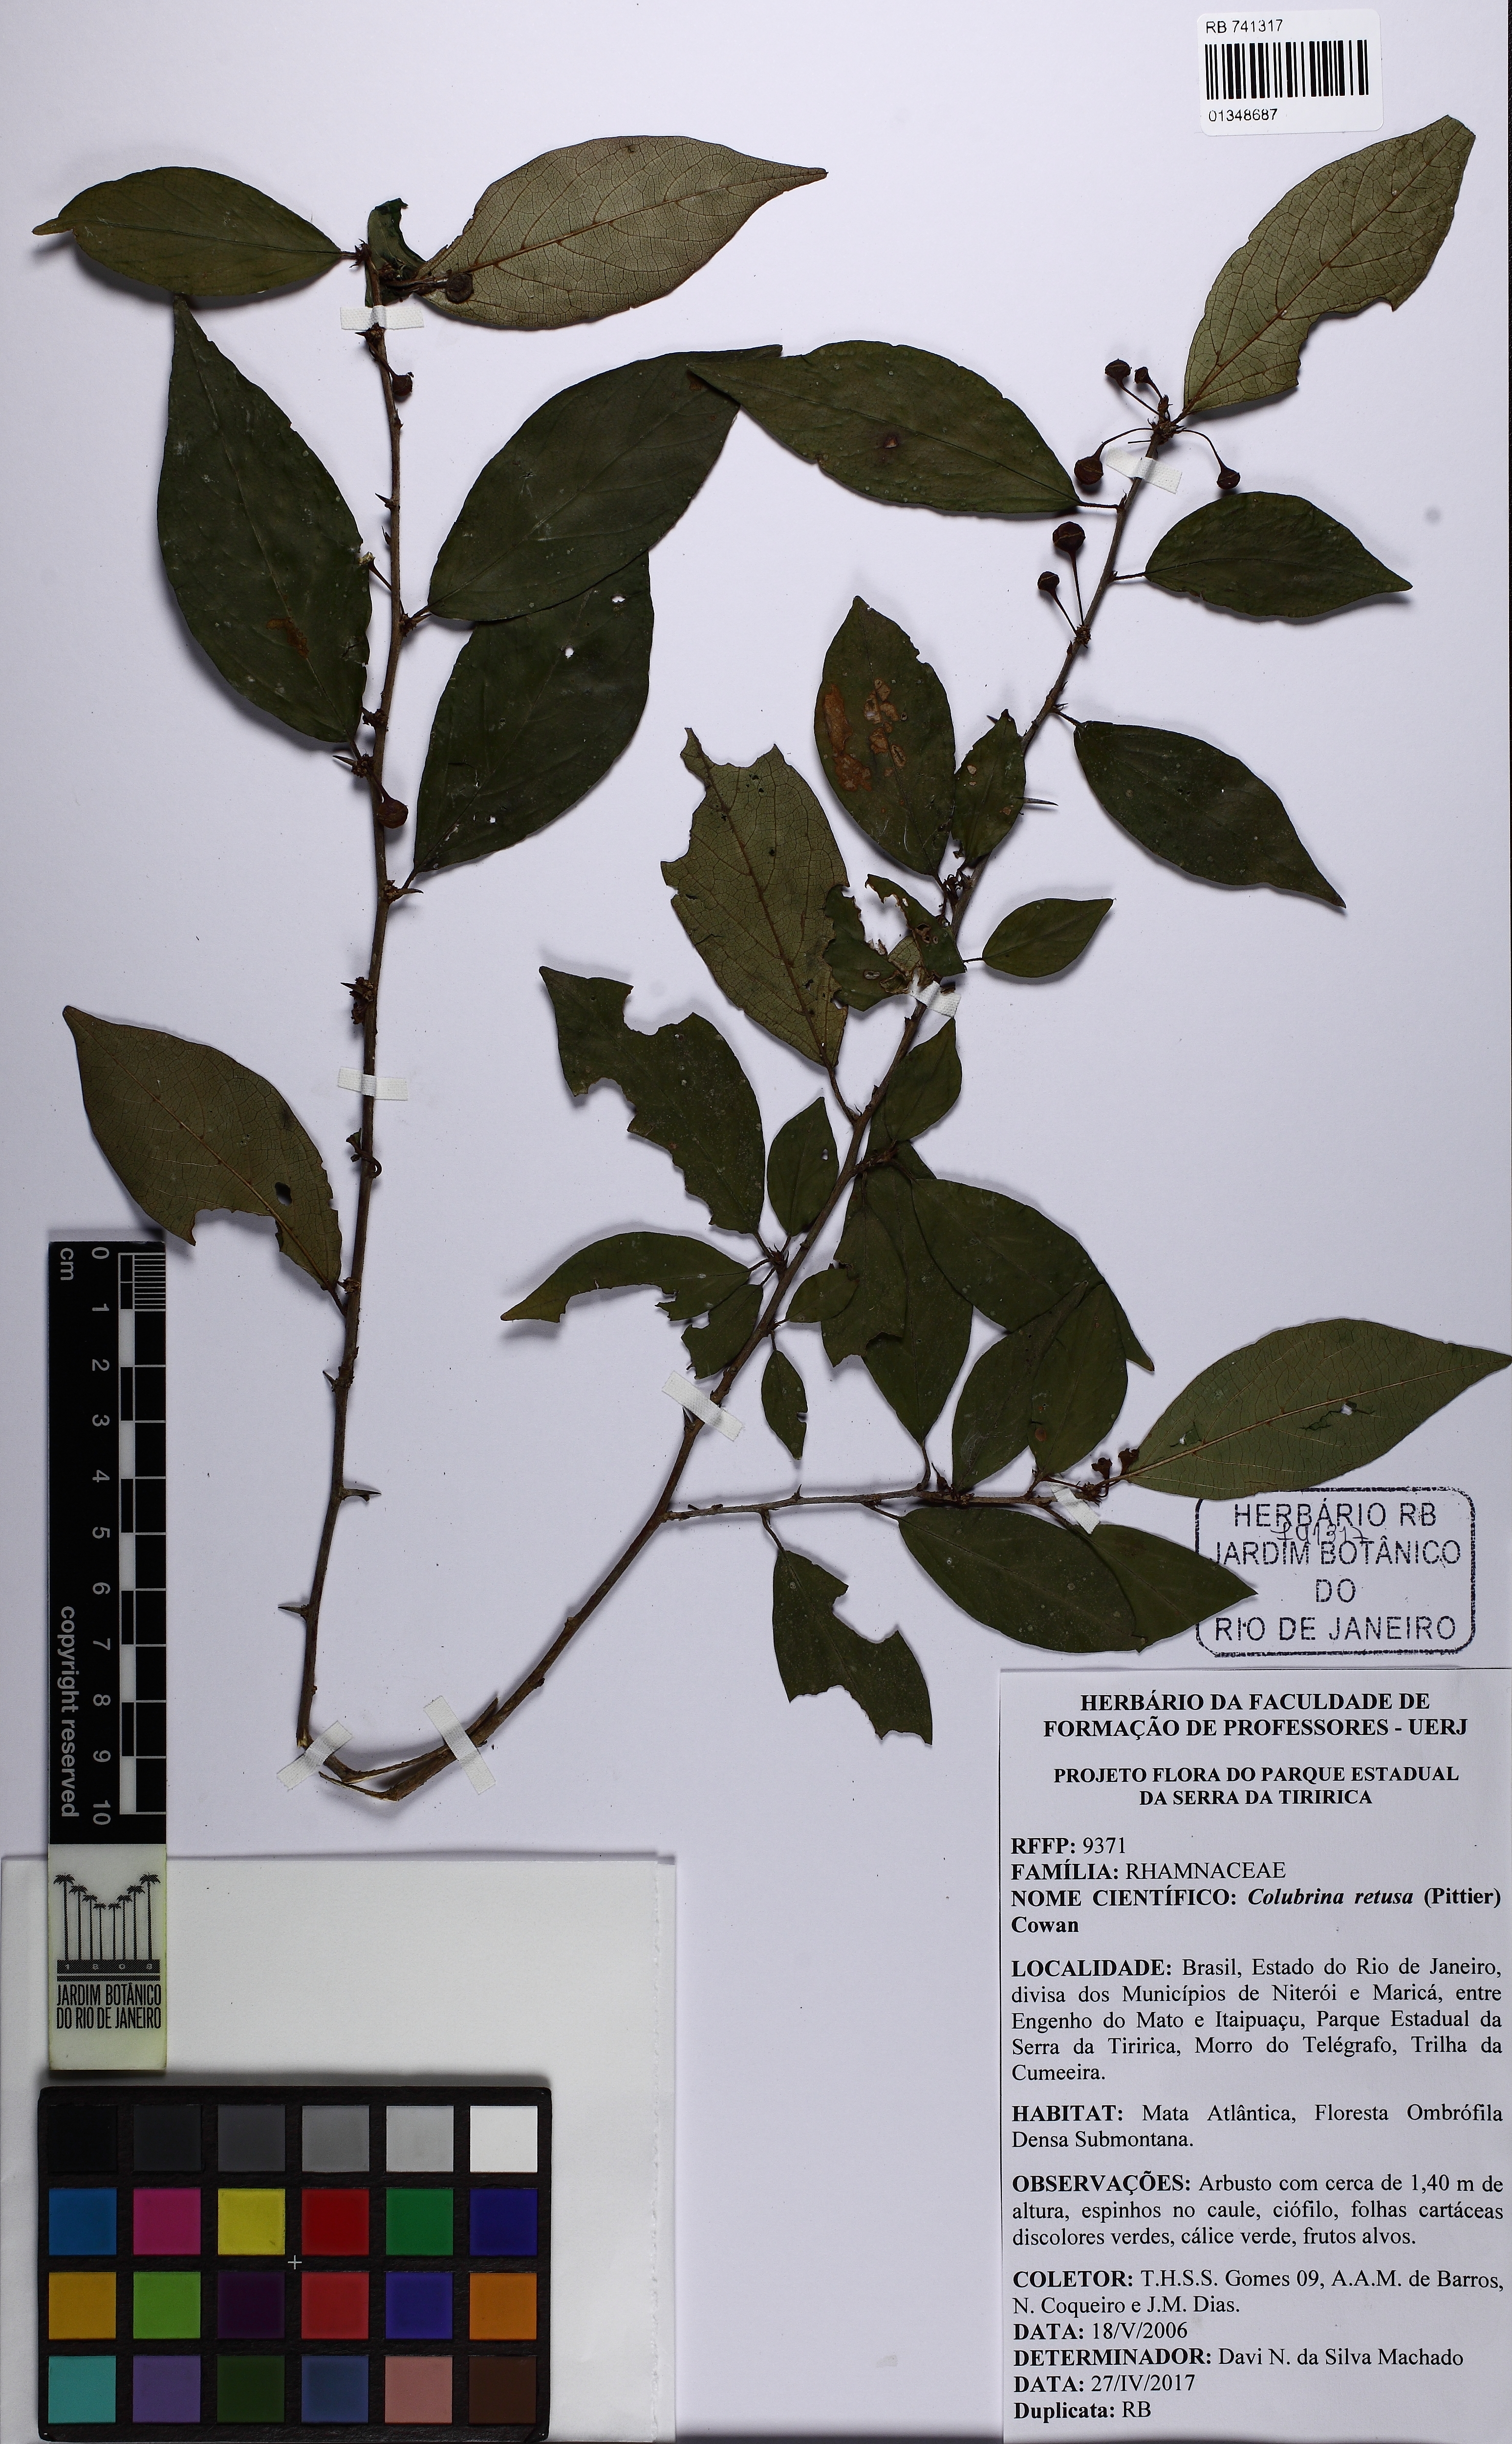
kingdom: Plantae
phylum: Tracheophyta
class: Magnoliopsida
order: Rosales
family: Rhamnaceae
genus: Colubrina
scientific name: Colubrina retusa
